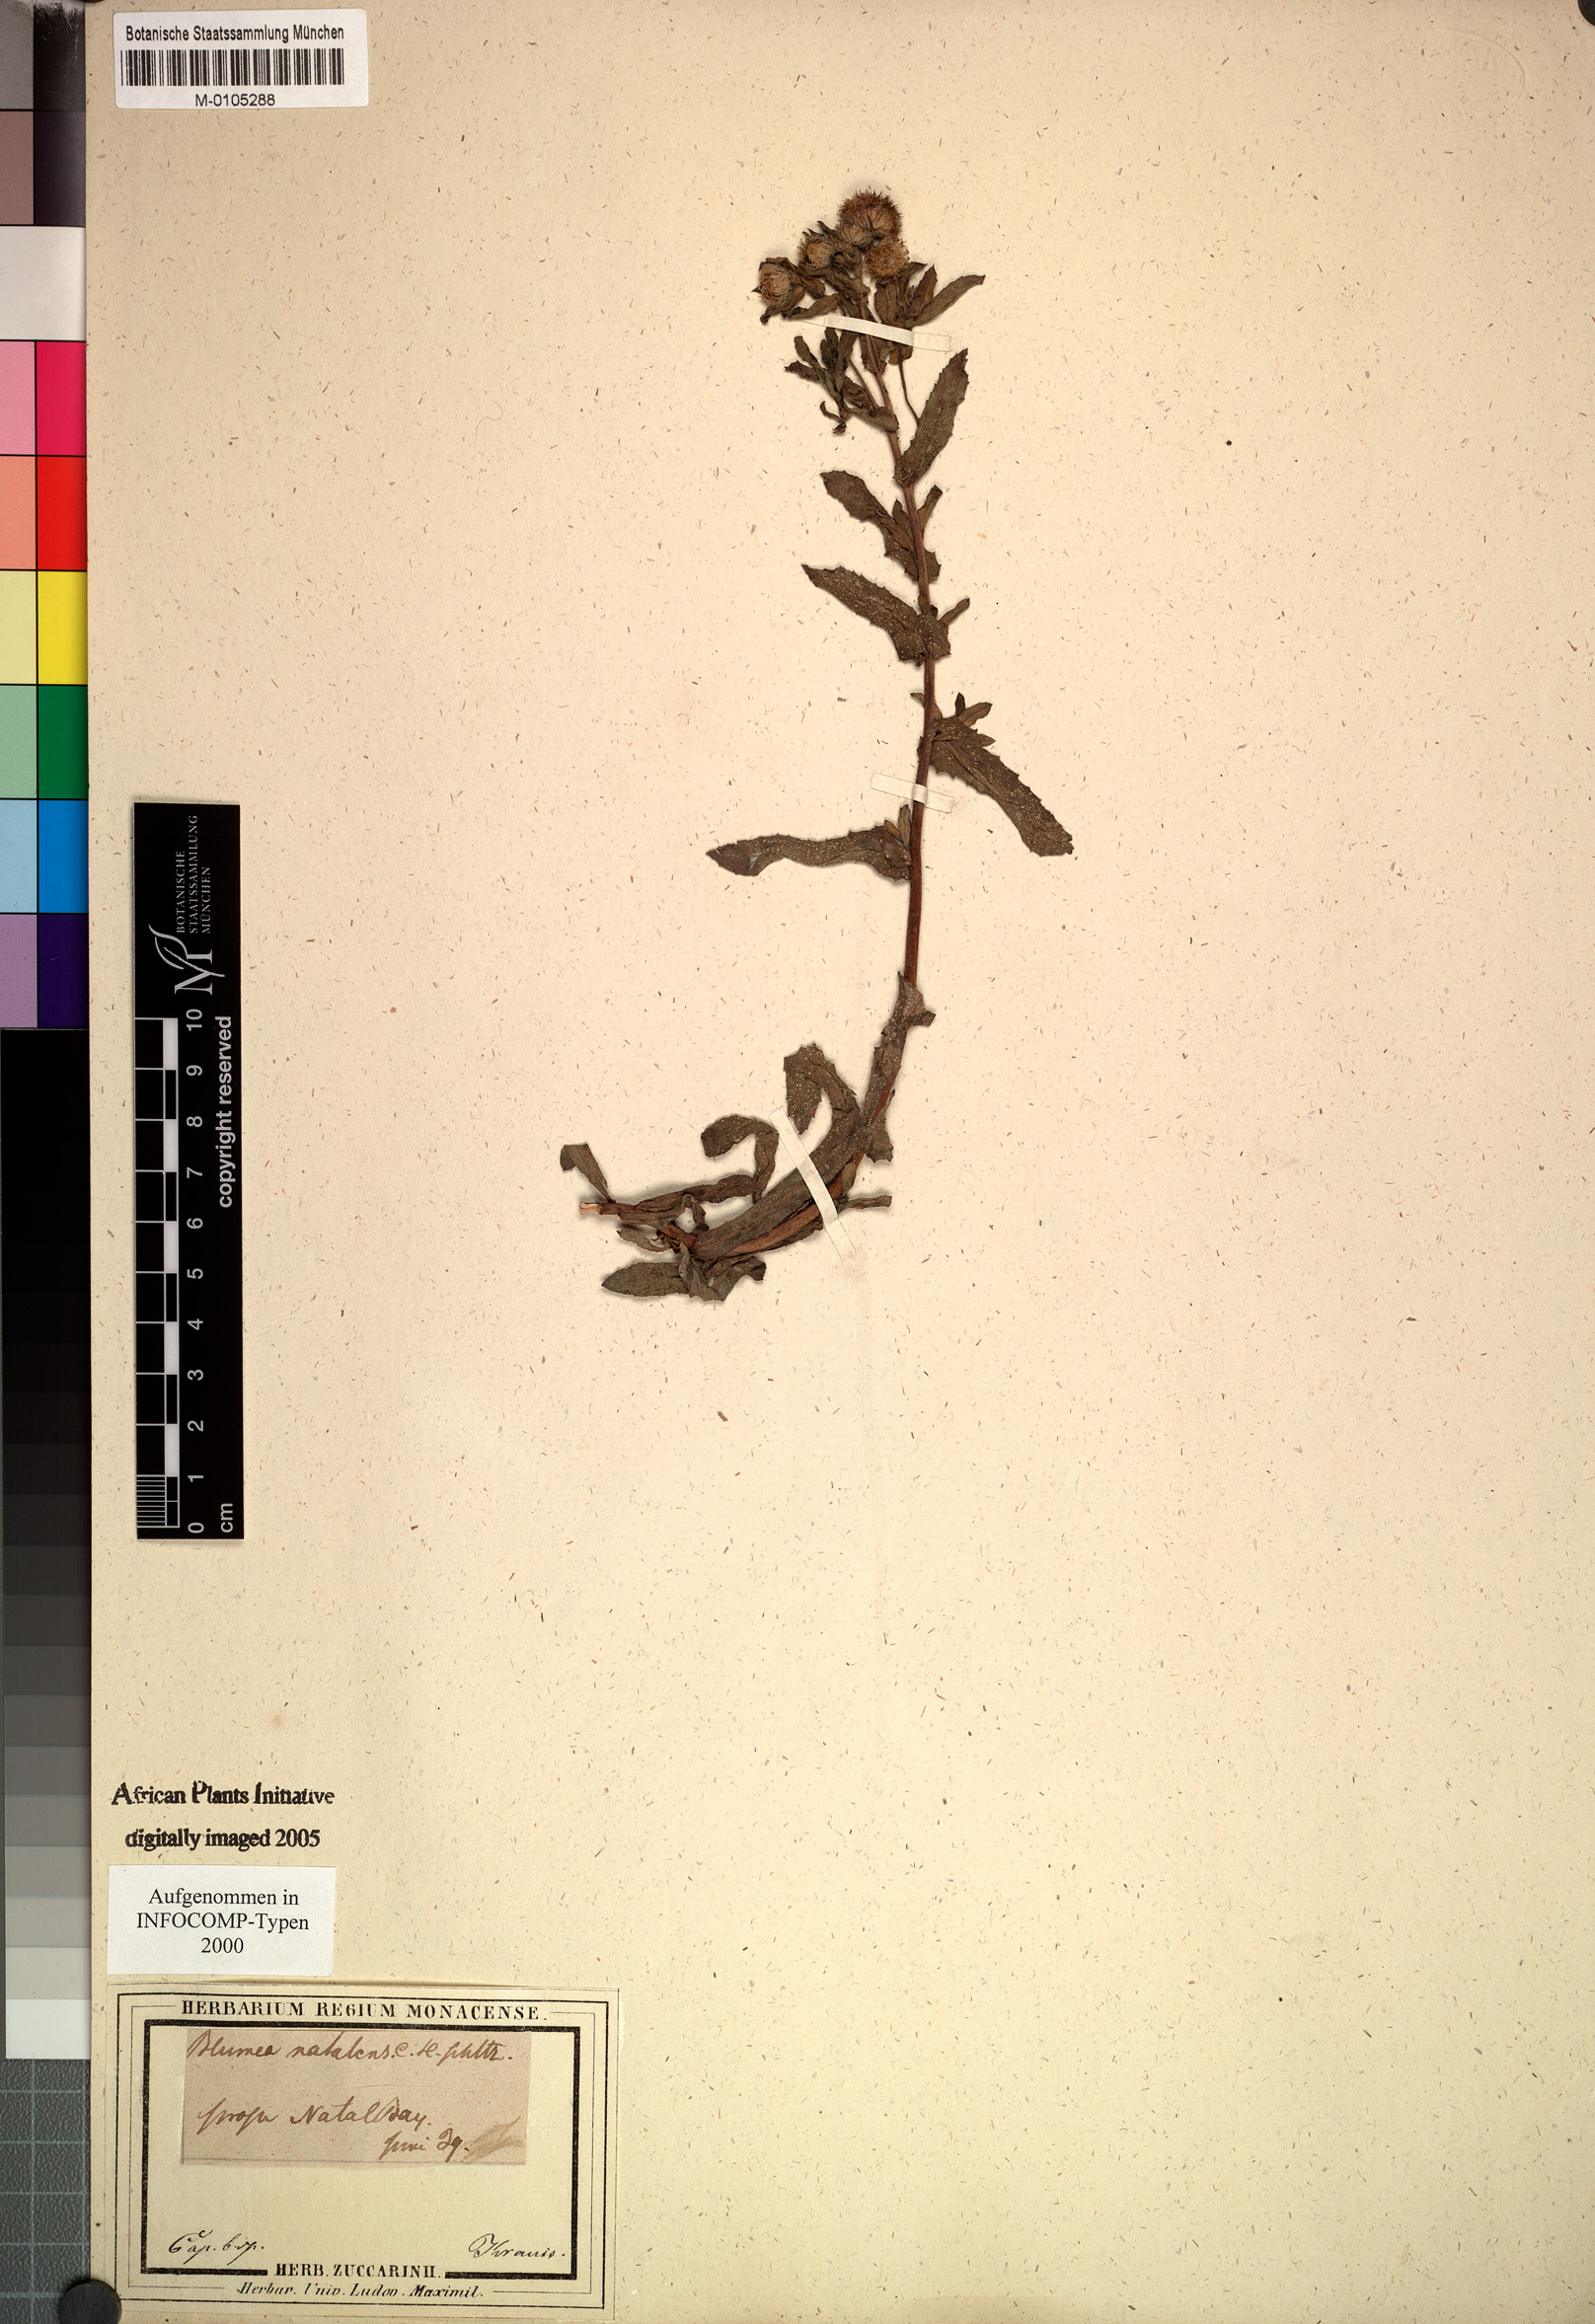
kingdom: Plantae
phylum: Tracheophyta
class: Magnoliopsida
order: Asterales
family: Asteraceae
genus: Doellia
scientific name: Doellia cafra
